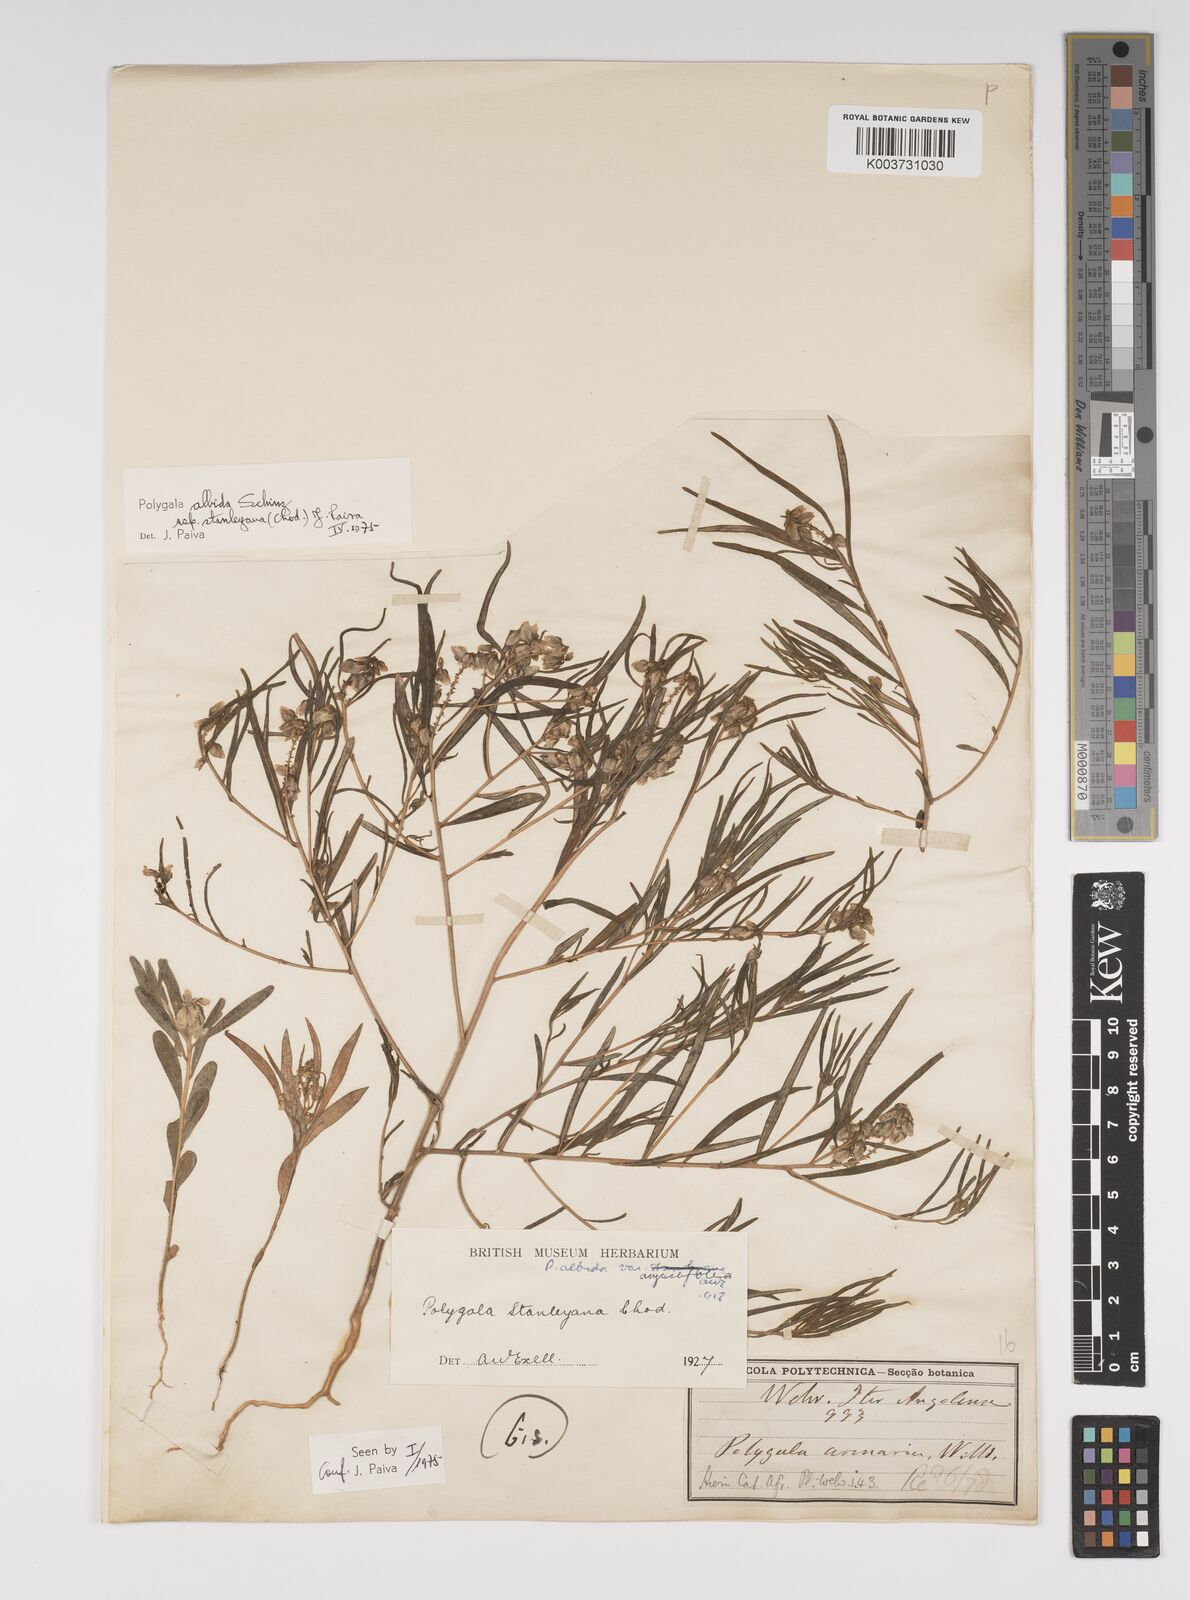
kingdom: Plantae
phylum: Tracheophyta
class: Magnoliopsida
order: Fabales
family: Polygalaceae
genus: Polygala
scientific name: Polygala albida
